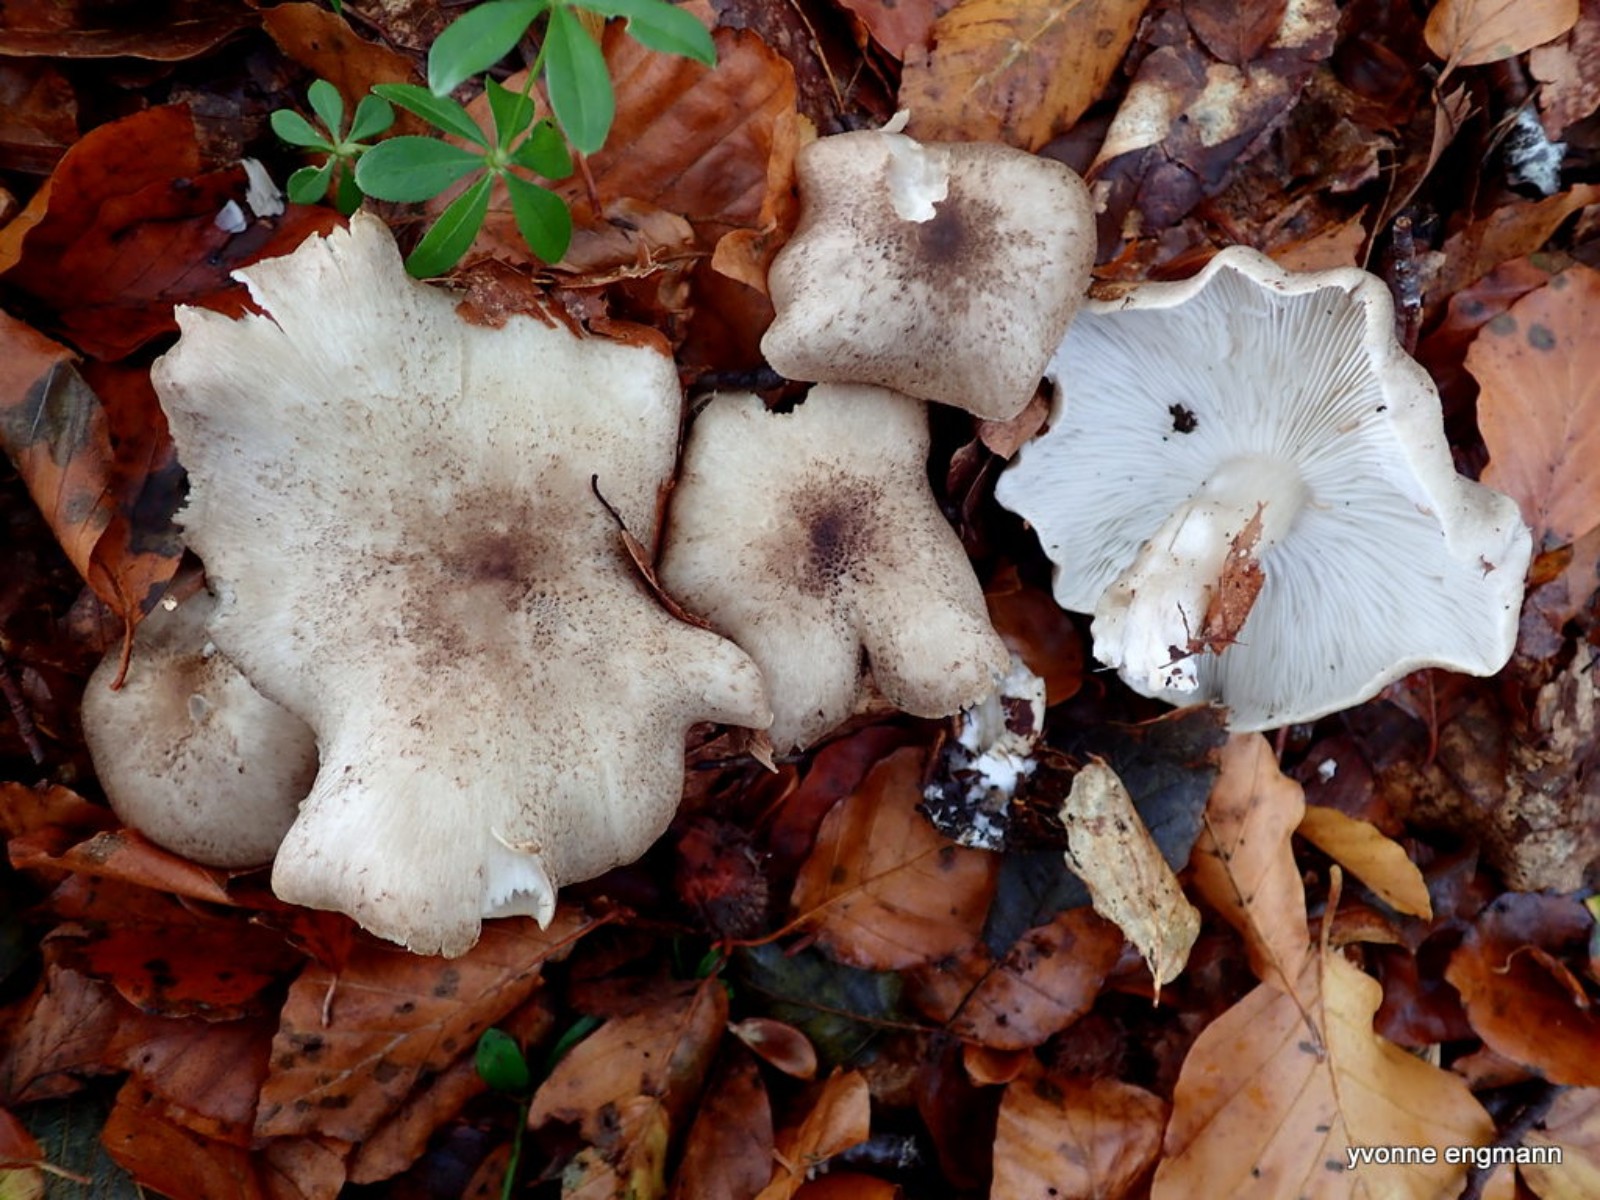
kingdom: Fungi
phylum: Basidiomycota
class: Agaricomycetes
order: Agaricales
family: Tricholomataceae
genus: Tricholoma
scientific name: Tricholoma scalpturatum
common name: gulplettet ridderhat
